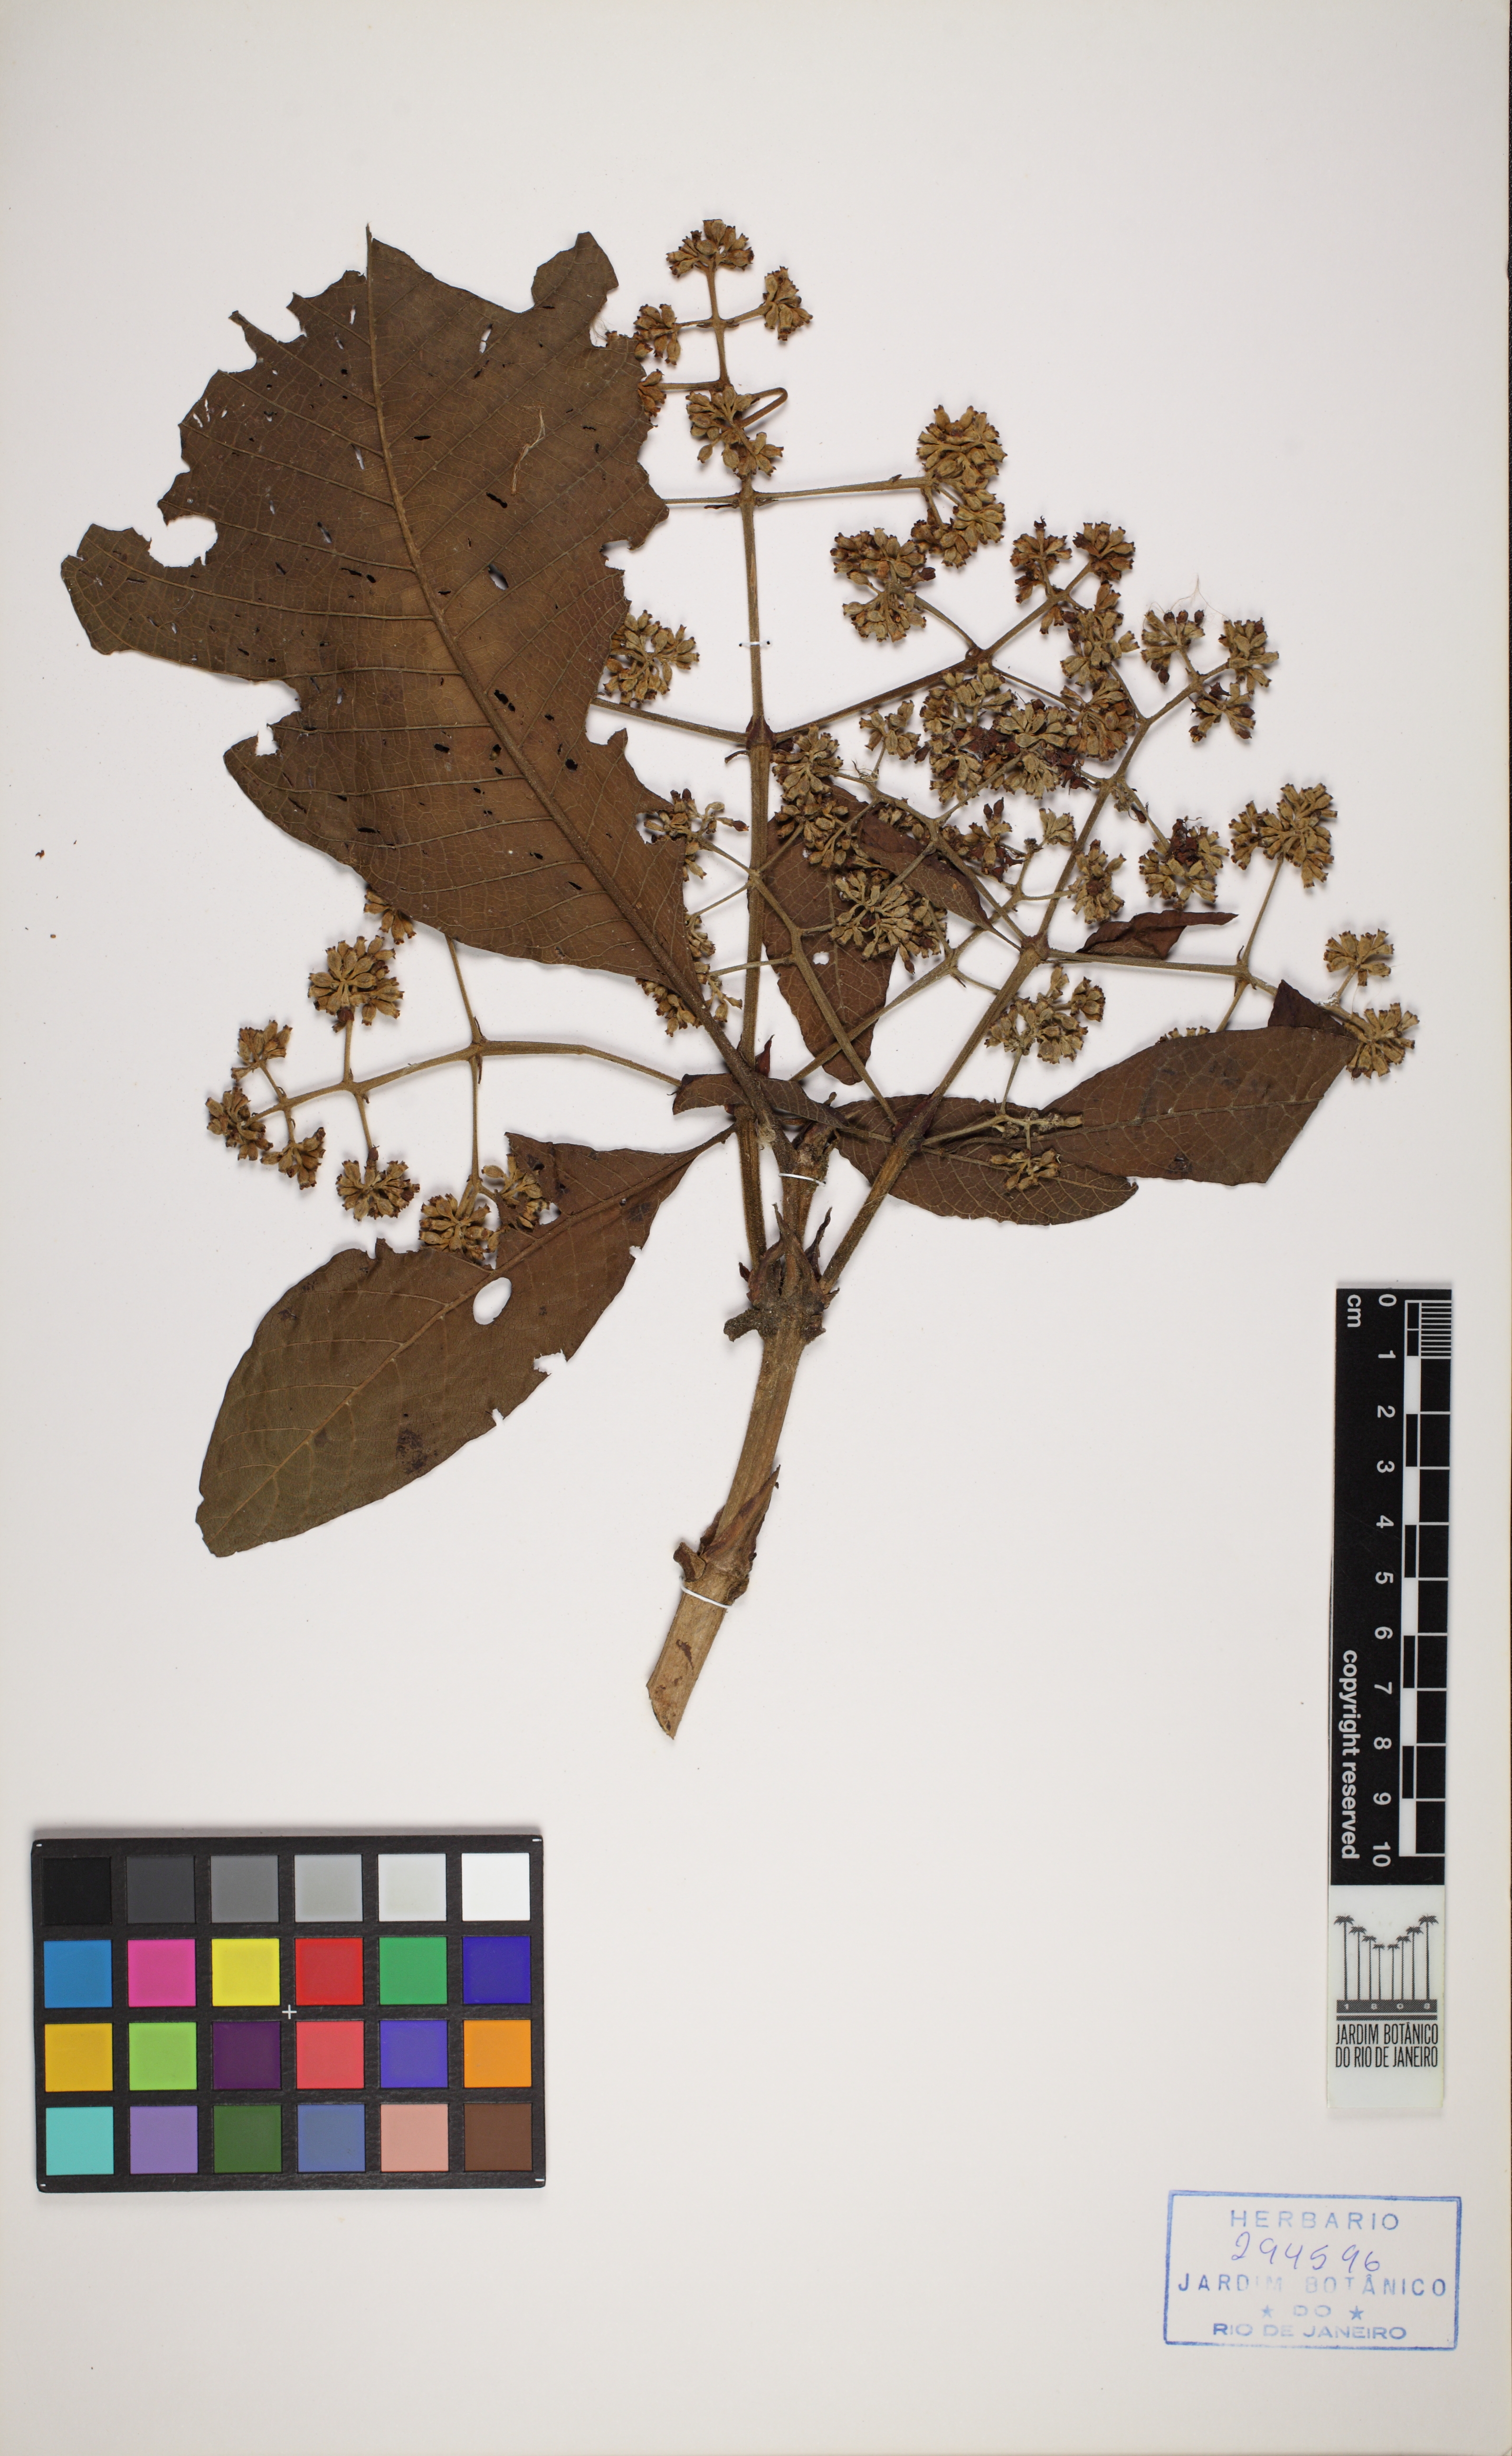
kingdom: Plantae
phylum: Tracheophyta
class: Magnoliopsida
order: Gentianales
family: Rubiaceae
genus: Bathysa
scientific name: Bathysa australis
